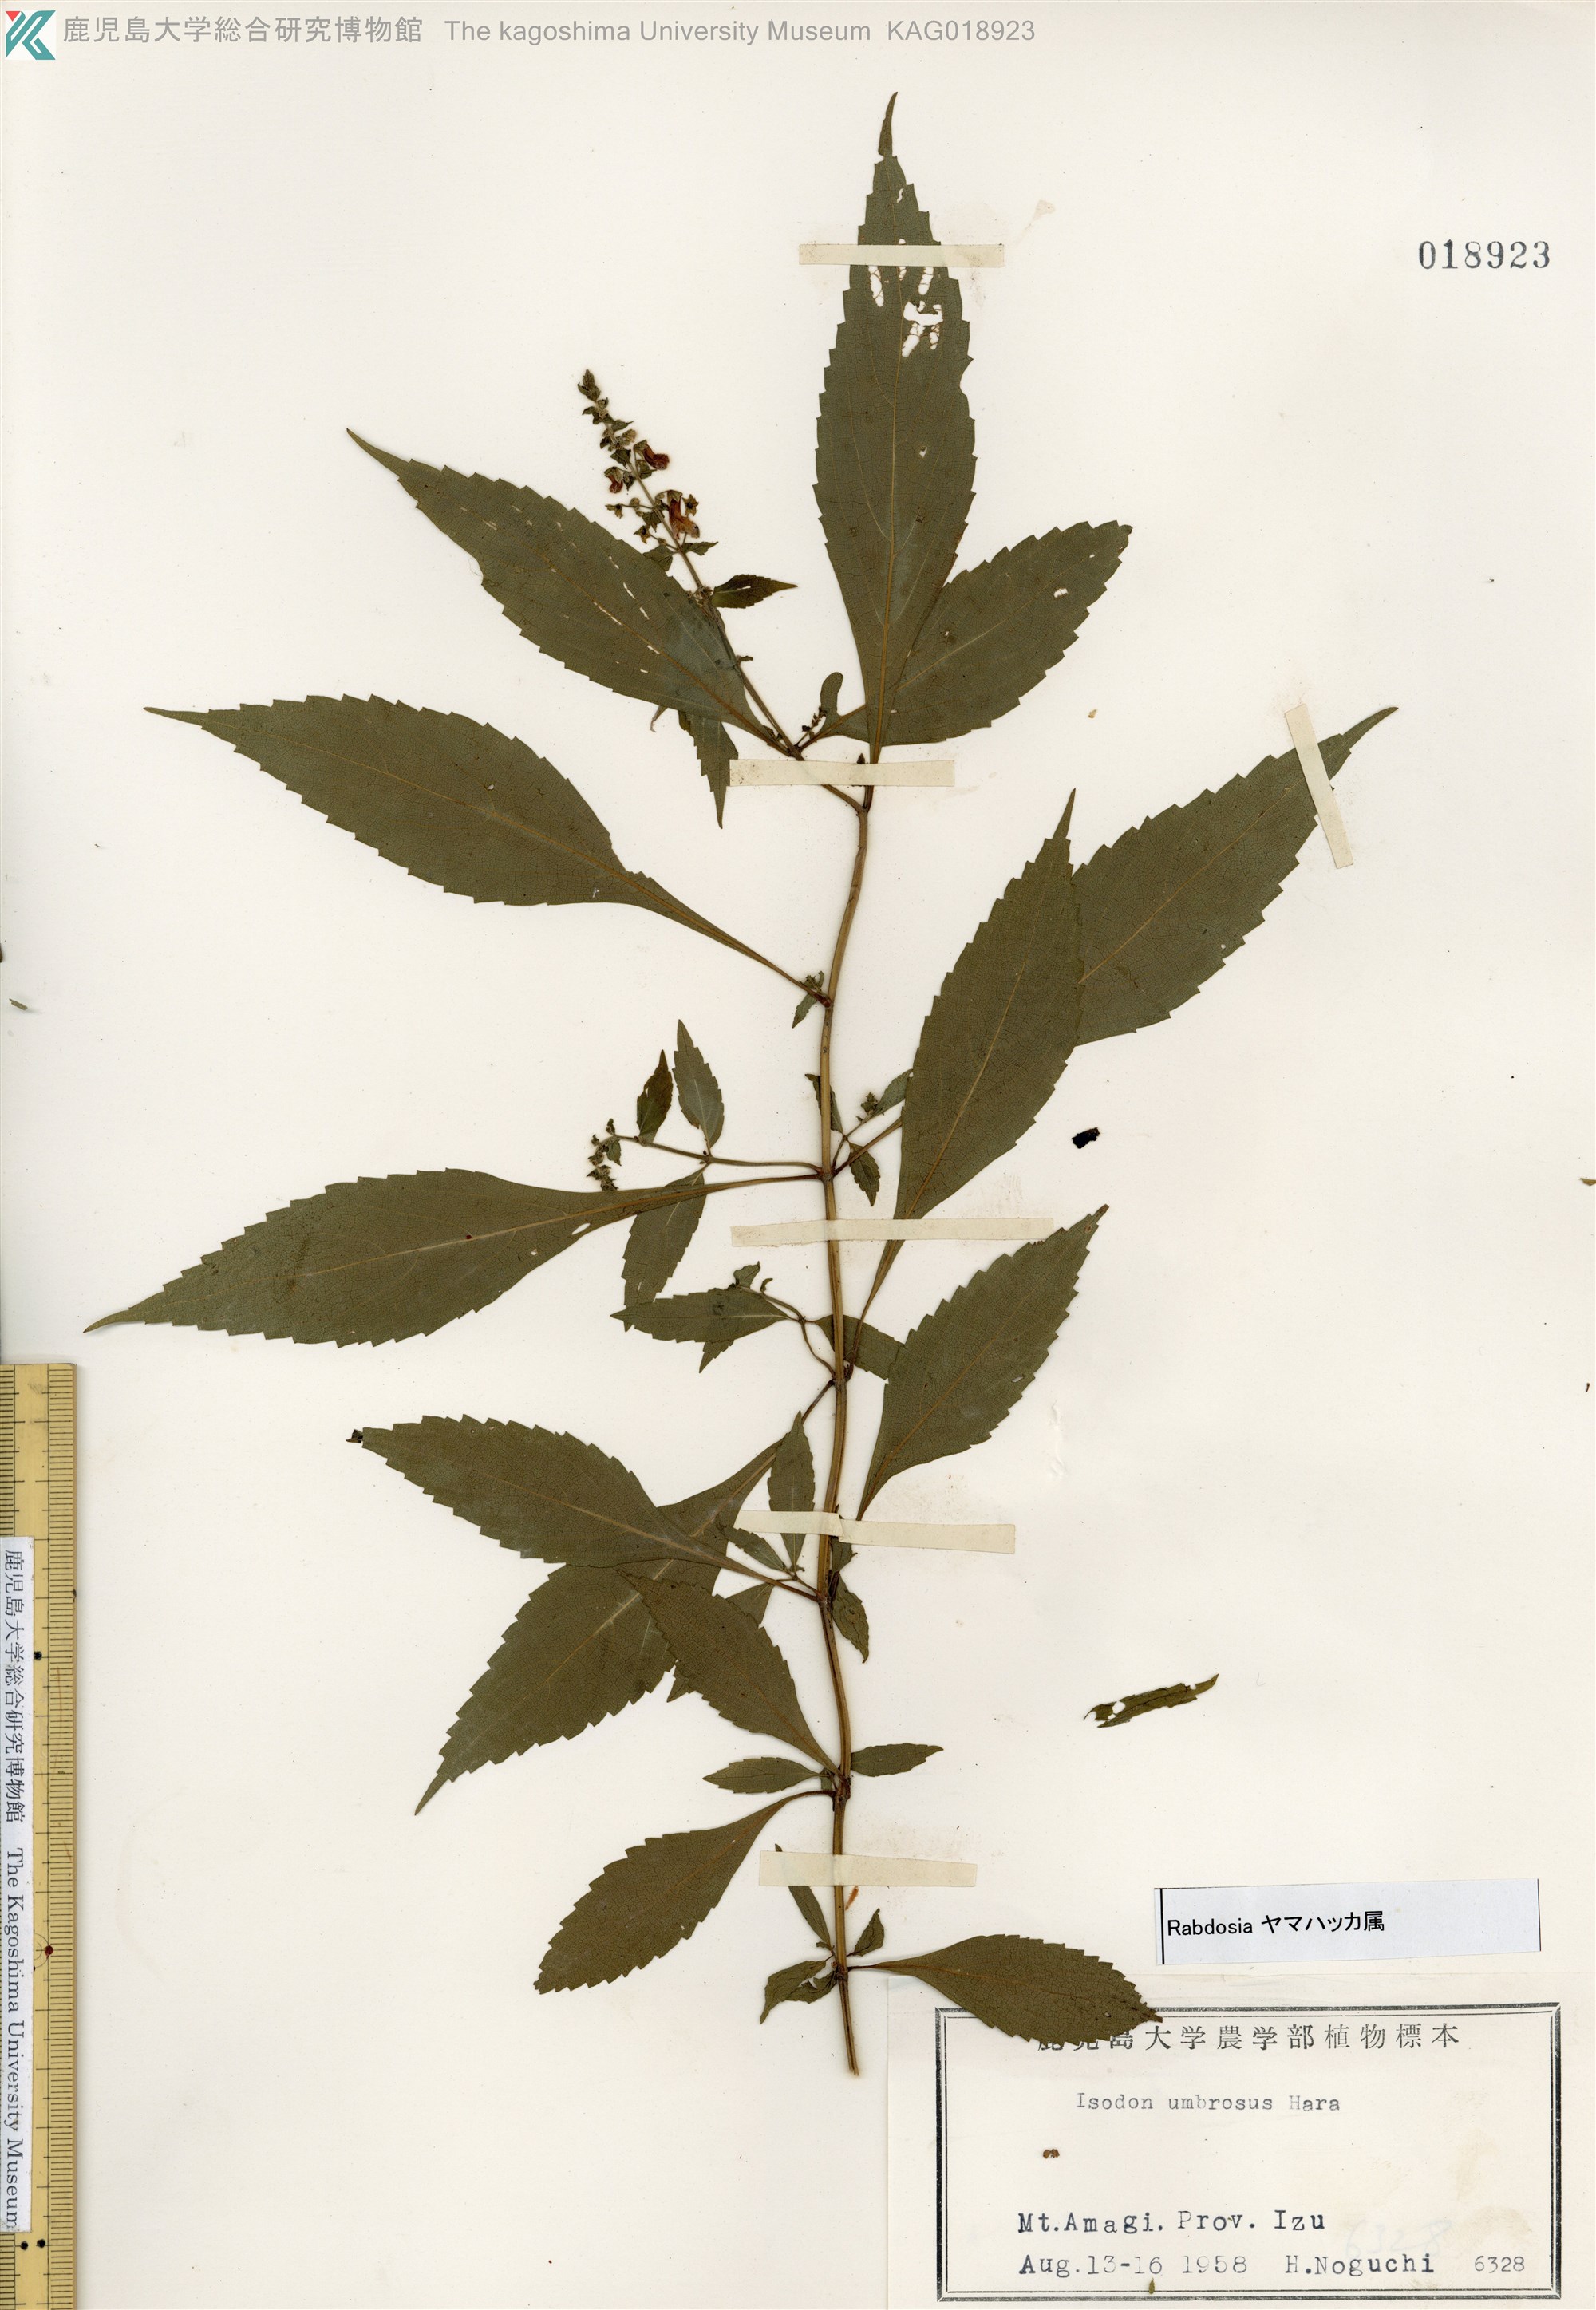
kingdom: Plantae
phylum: Tracheophyta
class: Magnoliopsida
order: Lamiales
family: Lamiaceae
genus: Isodon
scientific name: Isodon umbrosus
